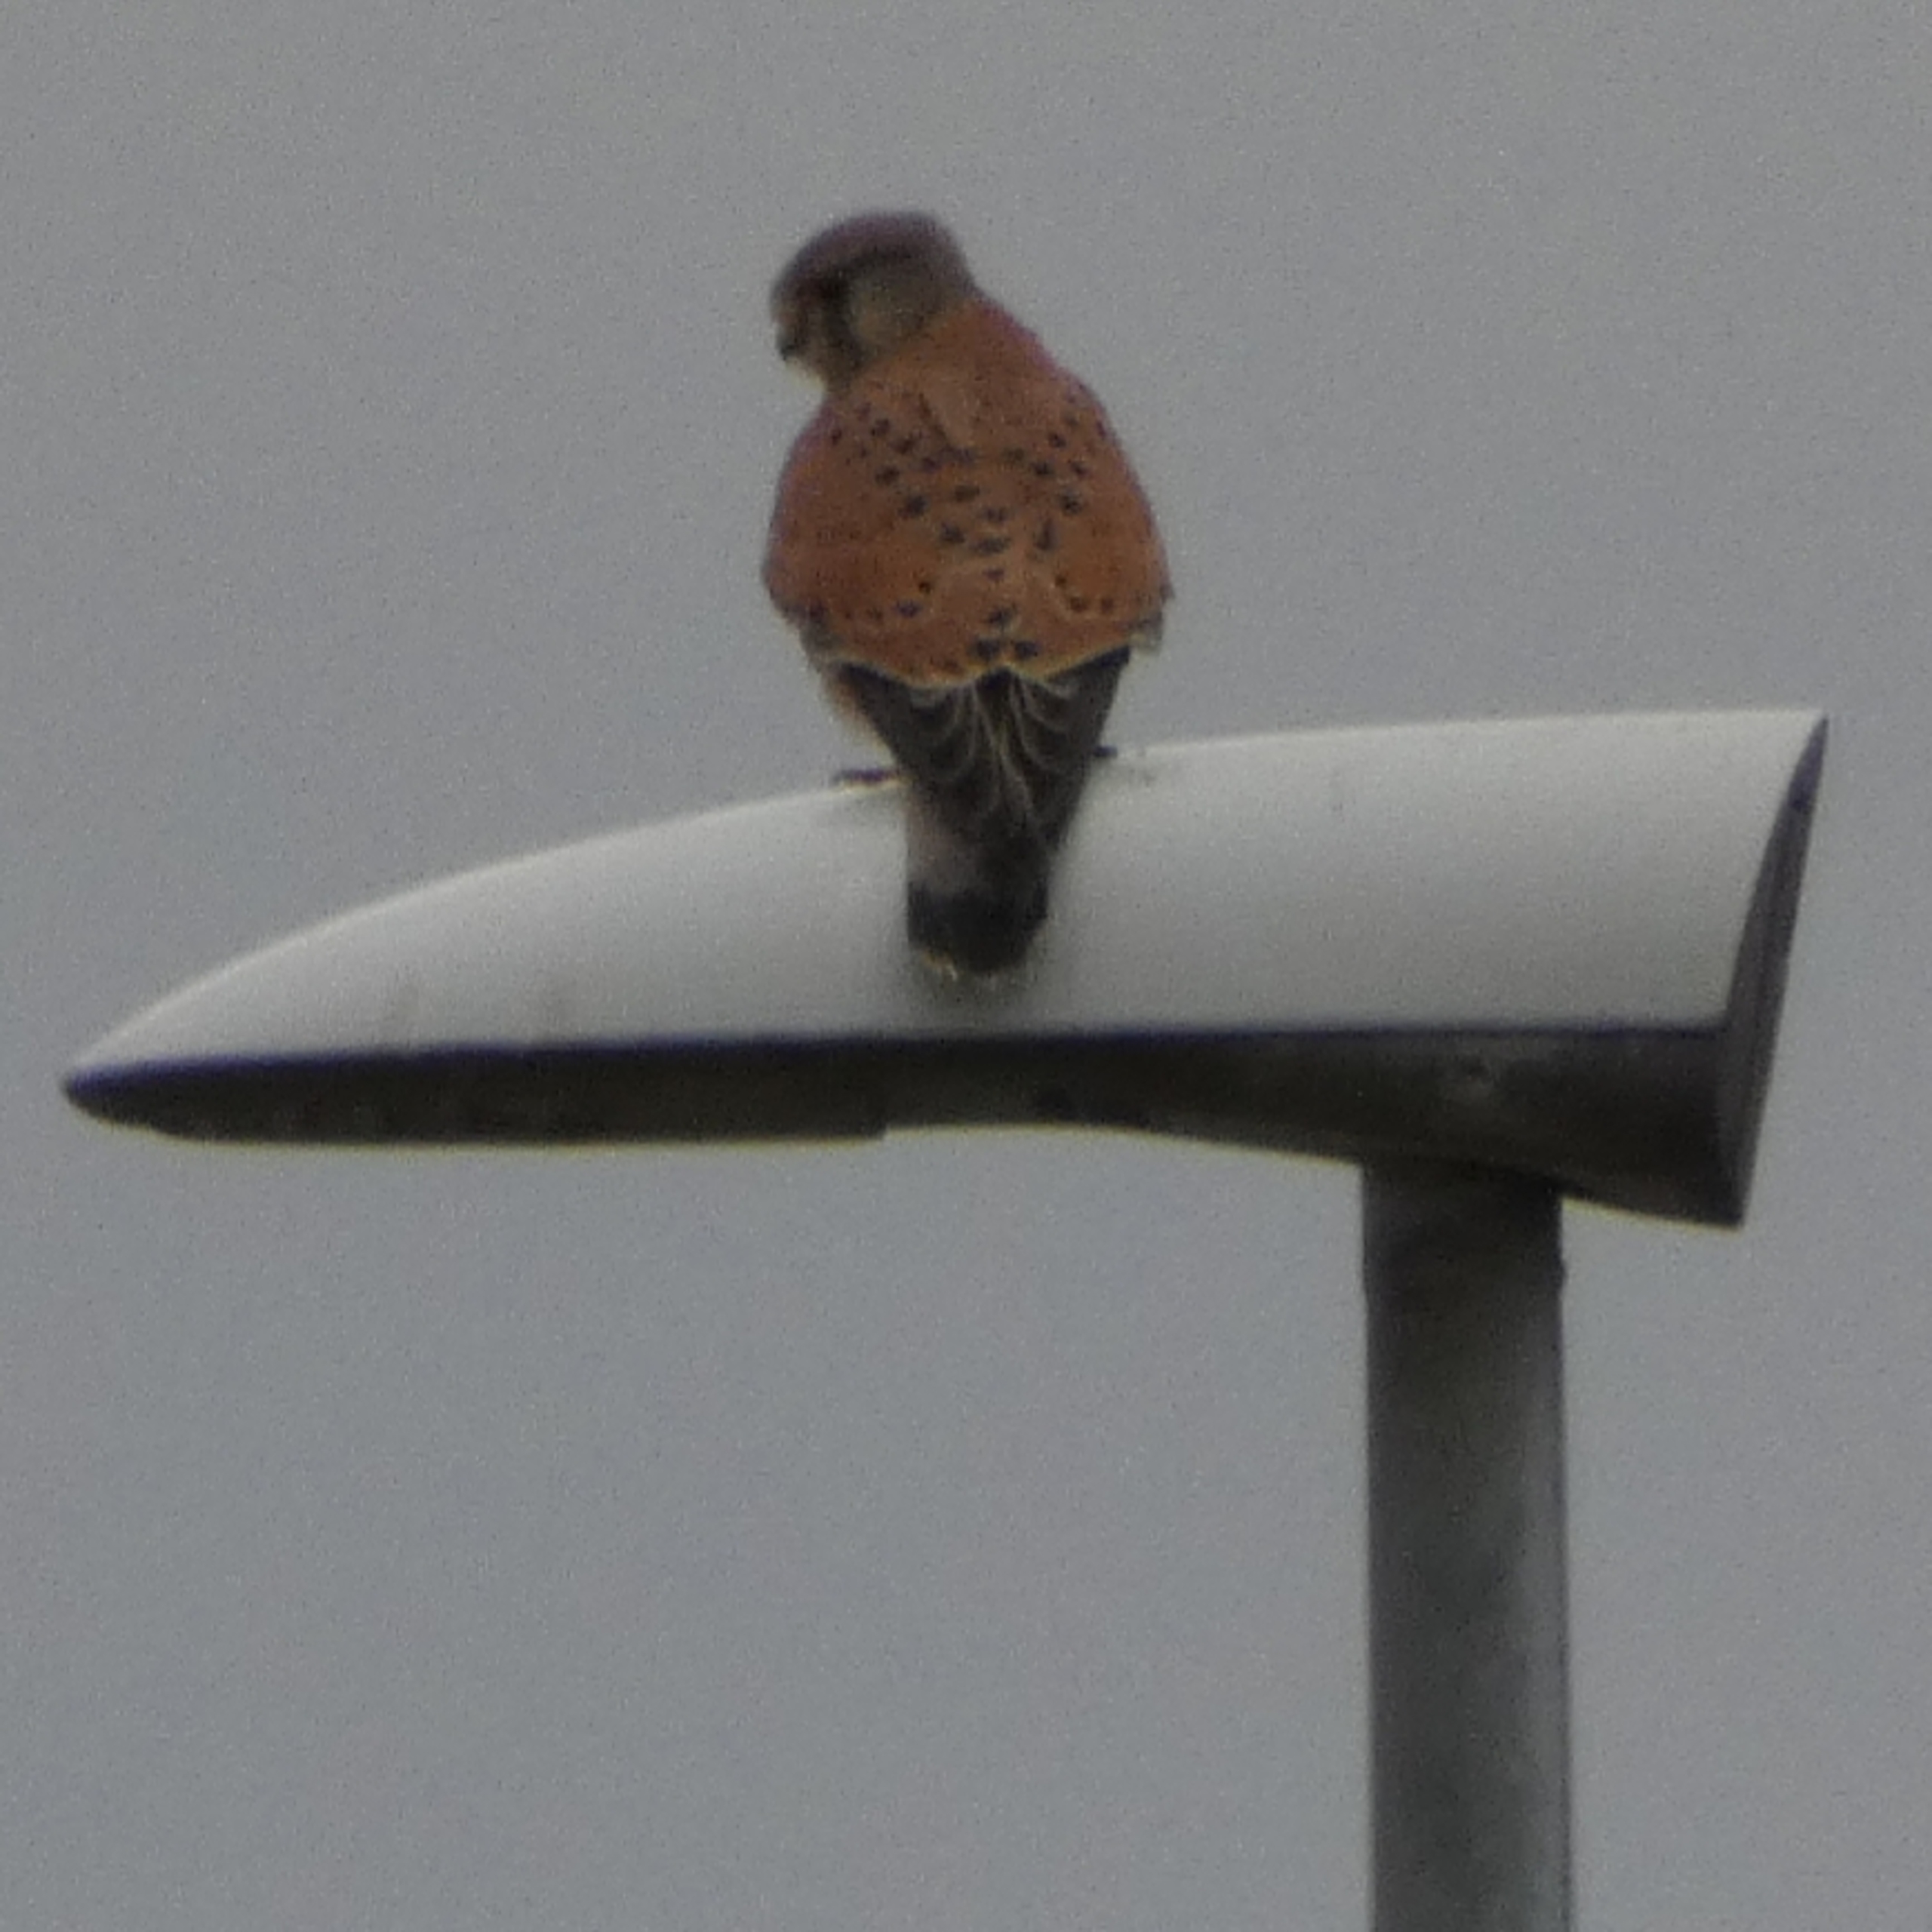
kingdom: Animalia
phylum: Chordata
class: Aves
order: Falconiformes
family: Falconidae
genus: Falco
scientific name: Falco tinnunculus
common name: Tårnfalk
